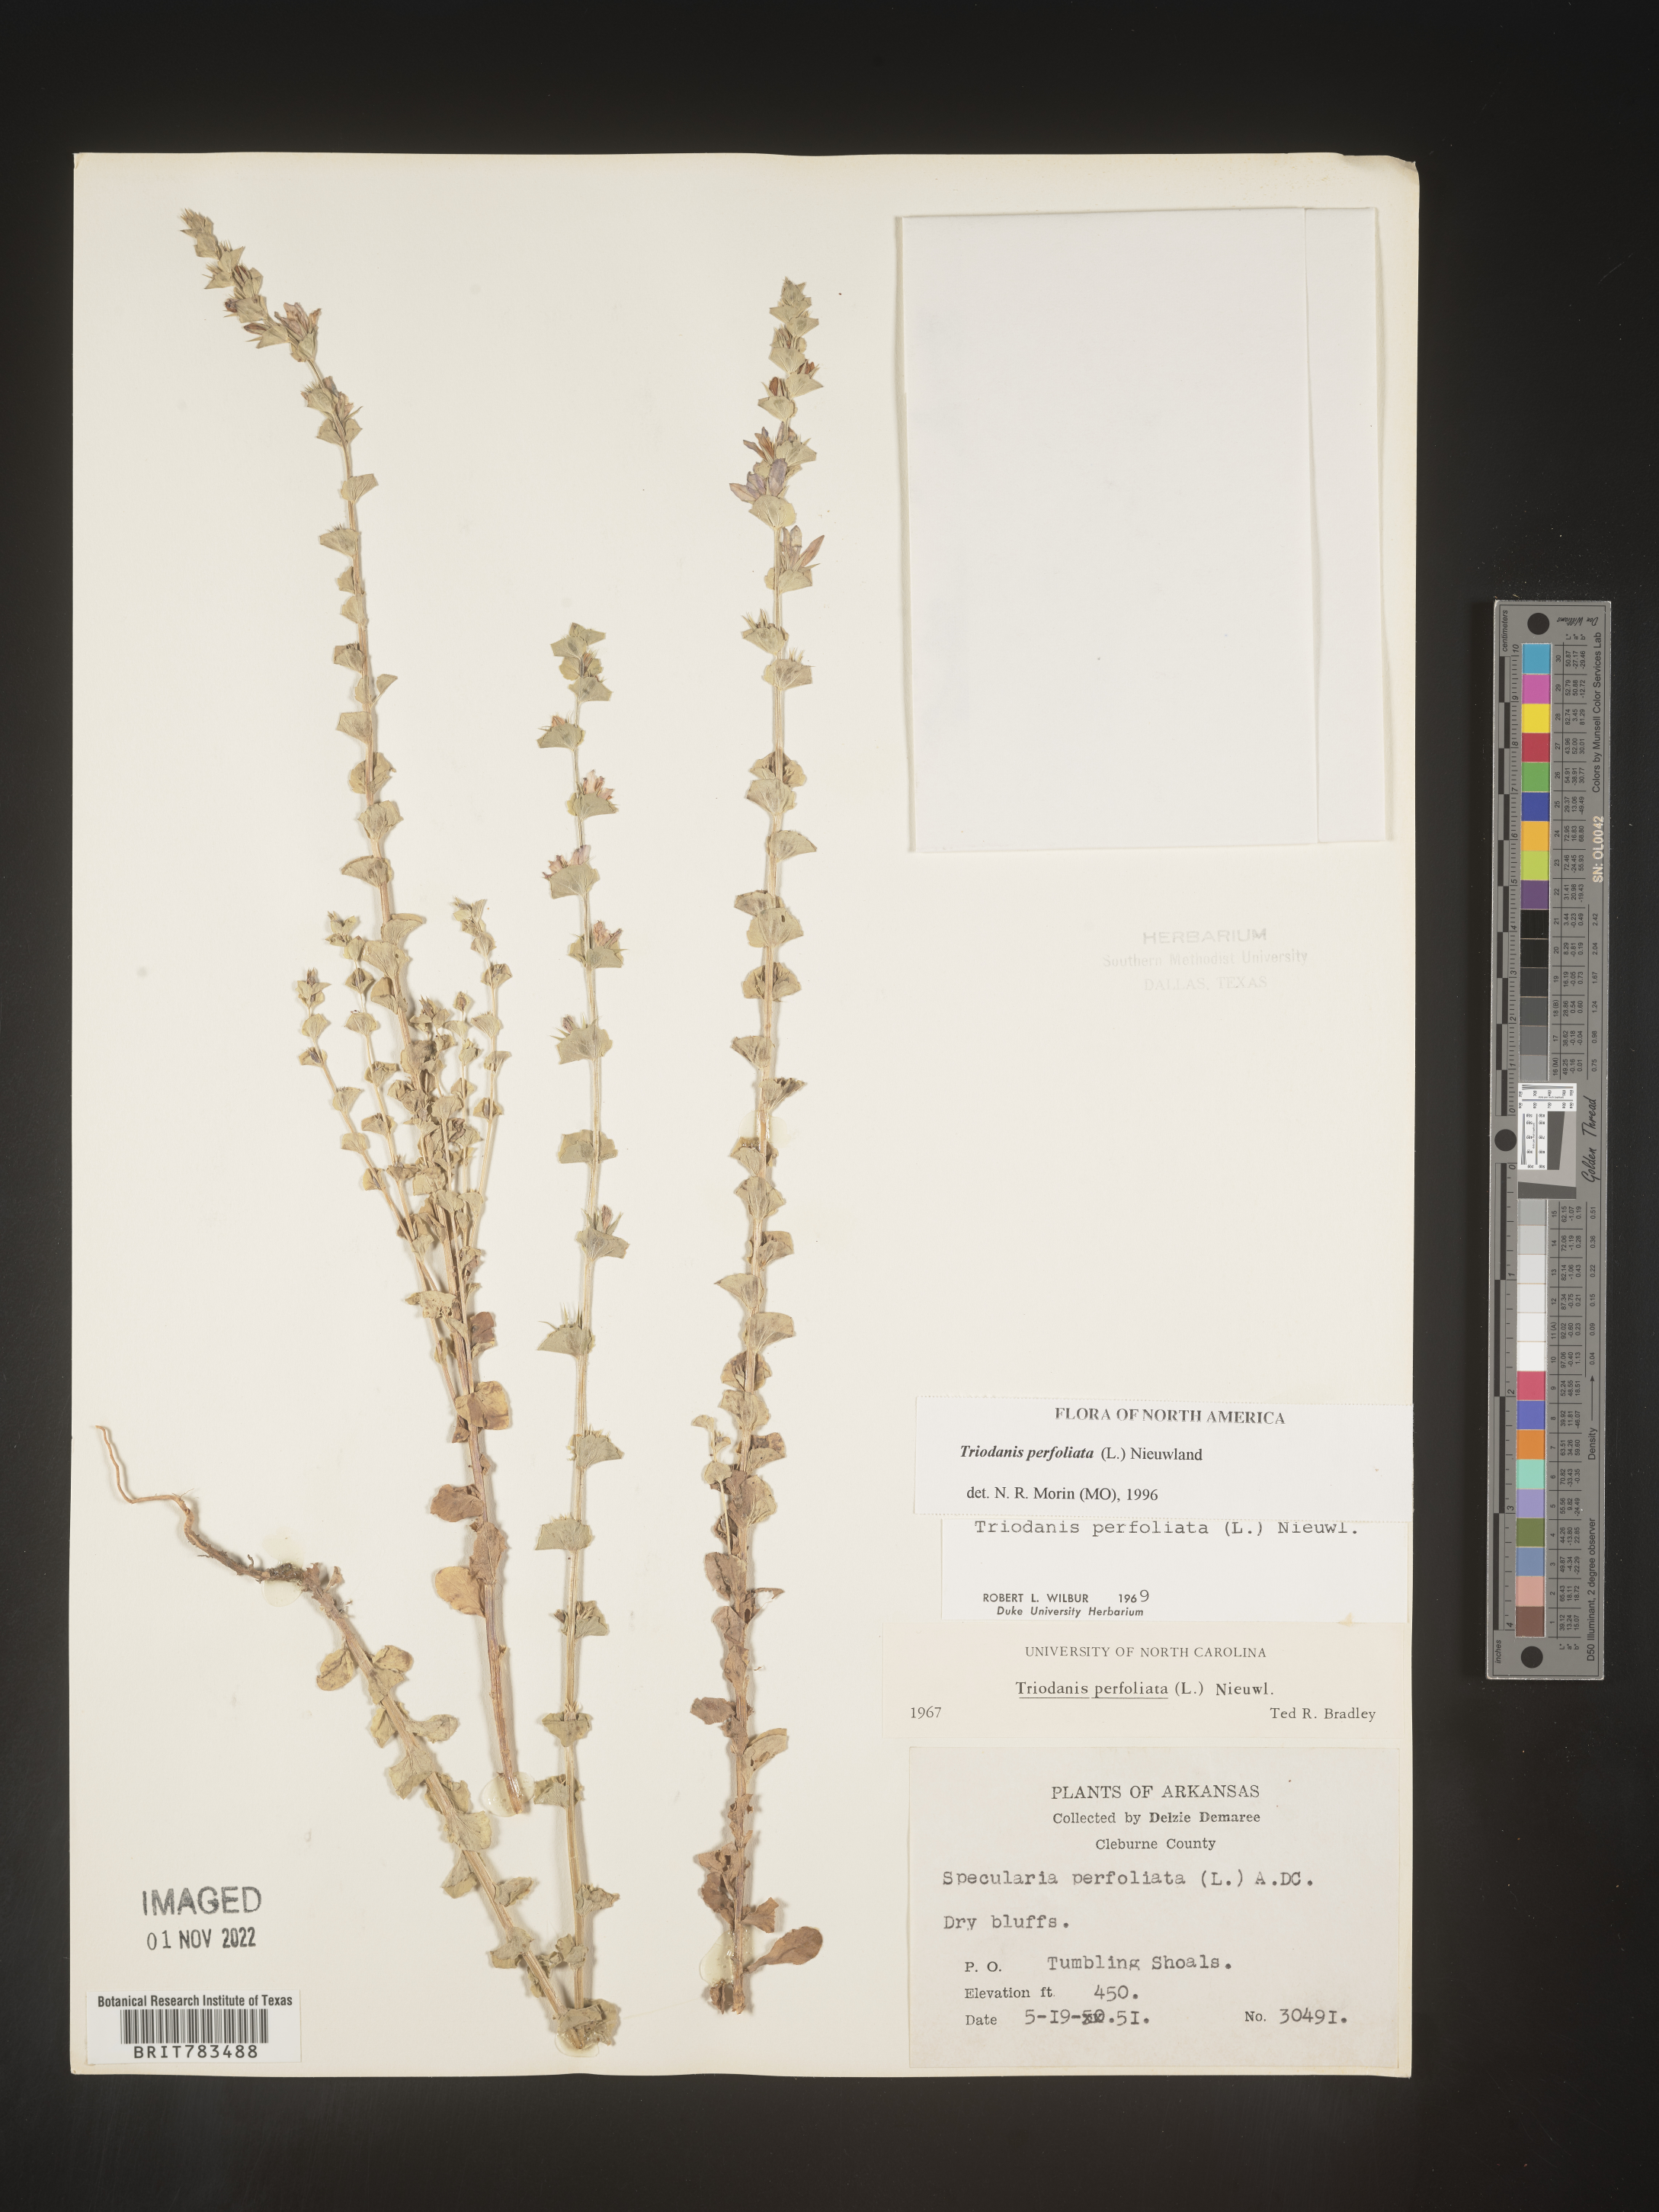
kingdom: Plantae
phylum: Tracheophyta
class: Magnoliopsida
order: Asterales
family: Campanulaceae
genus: Triodanis
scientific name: Triodanis perfoliata
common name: Clasping venus' looking-glass
